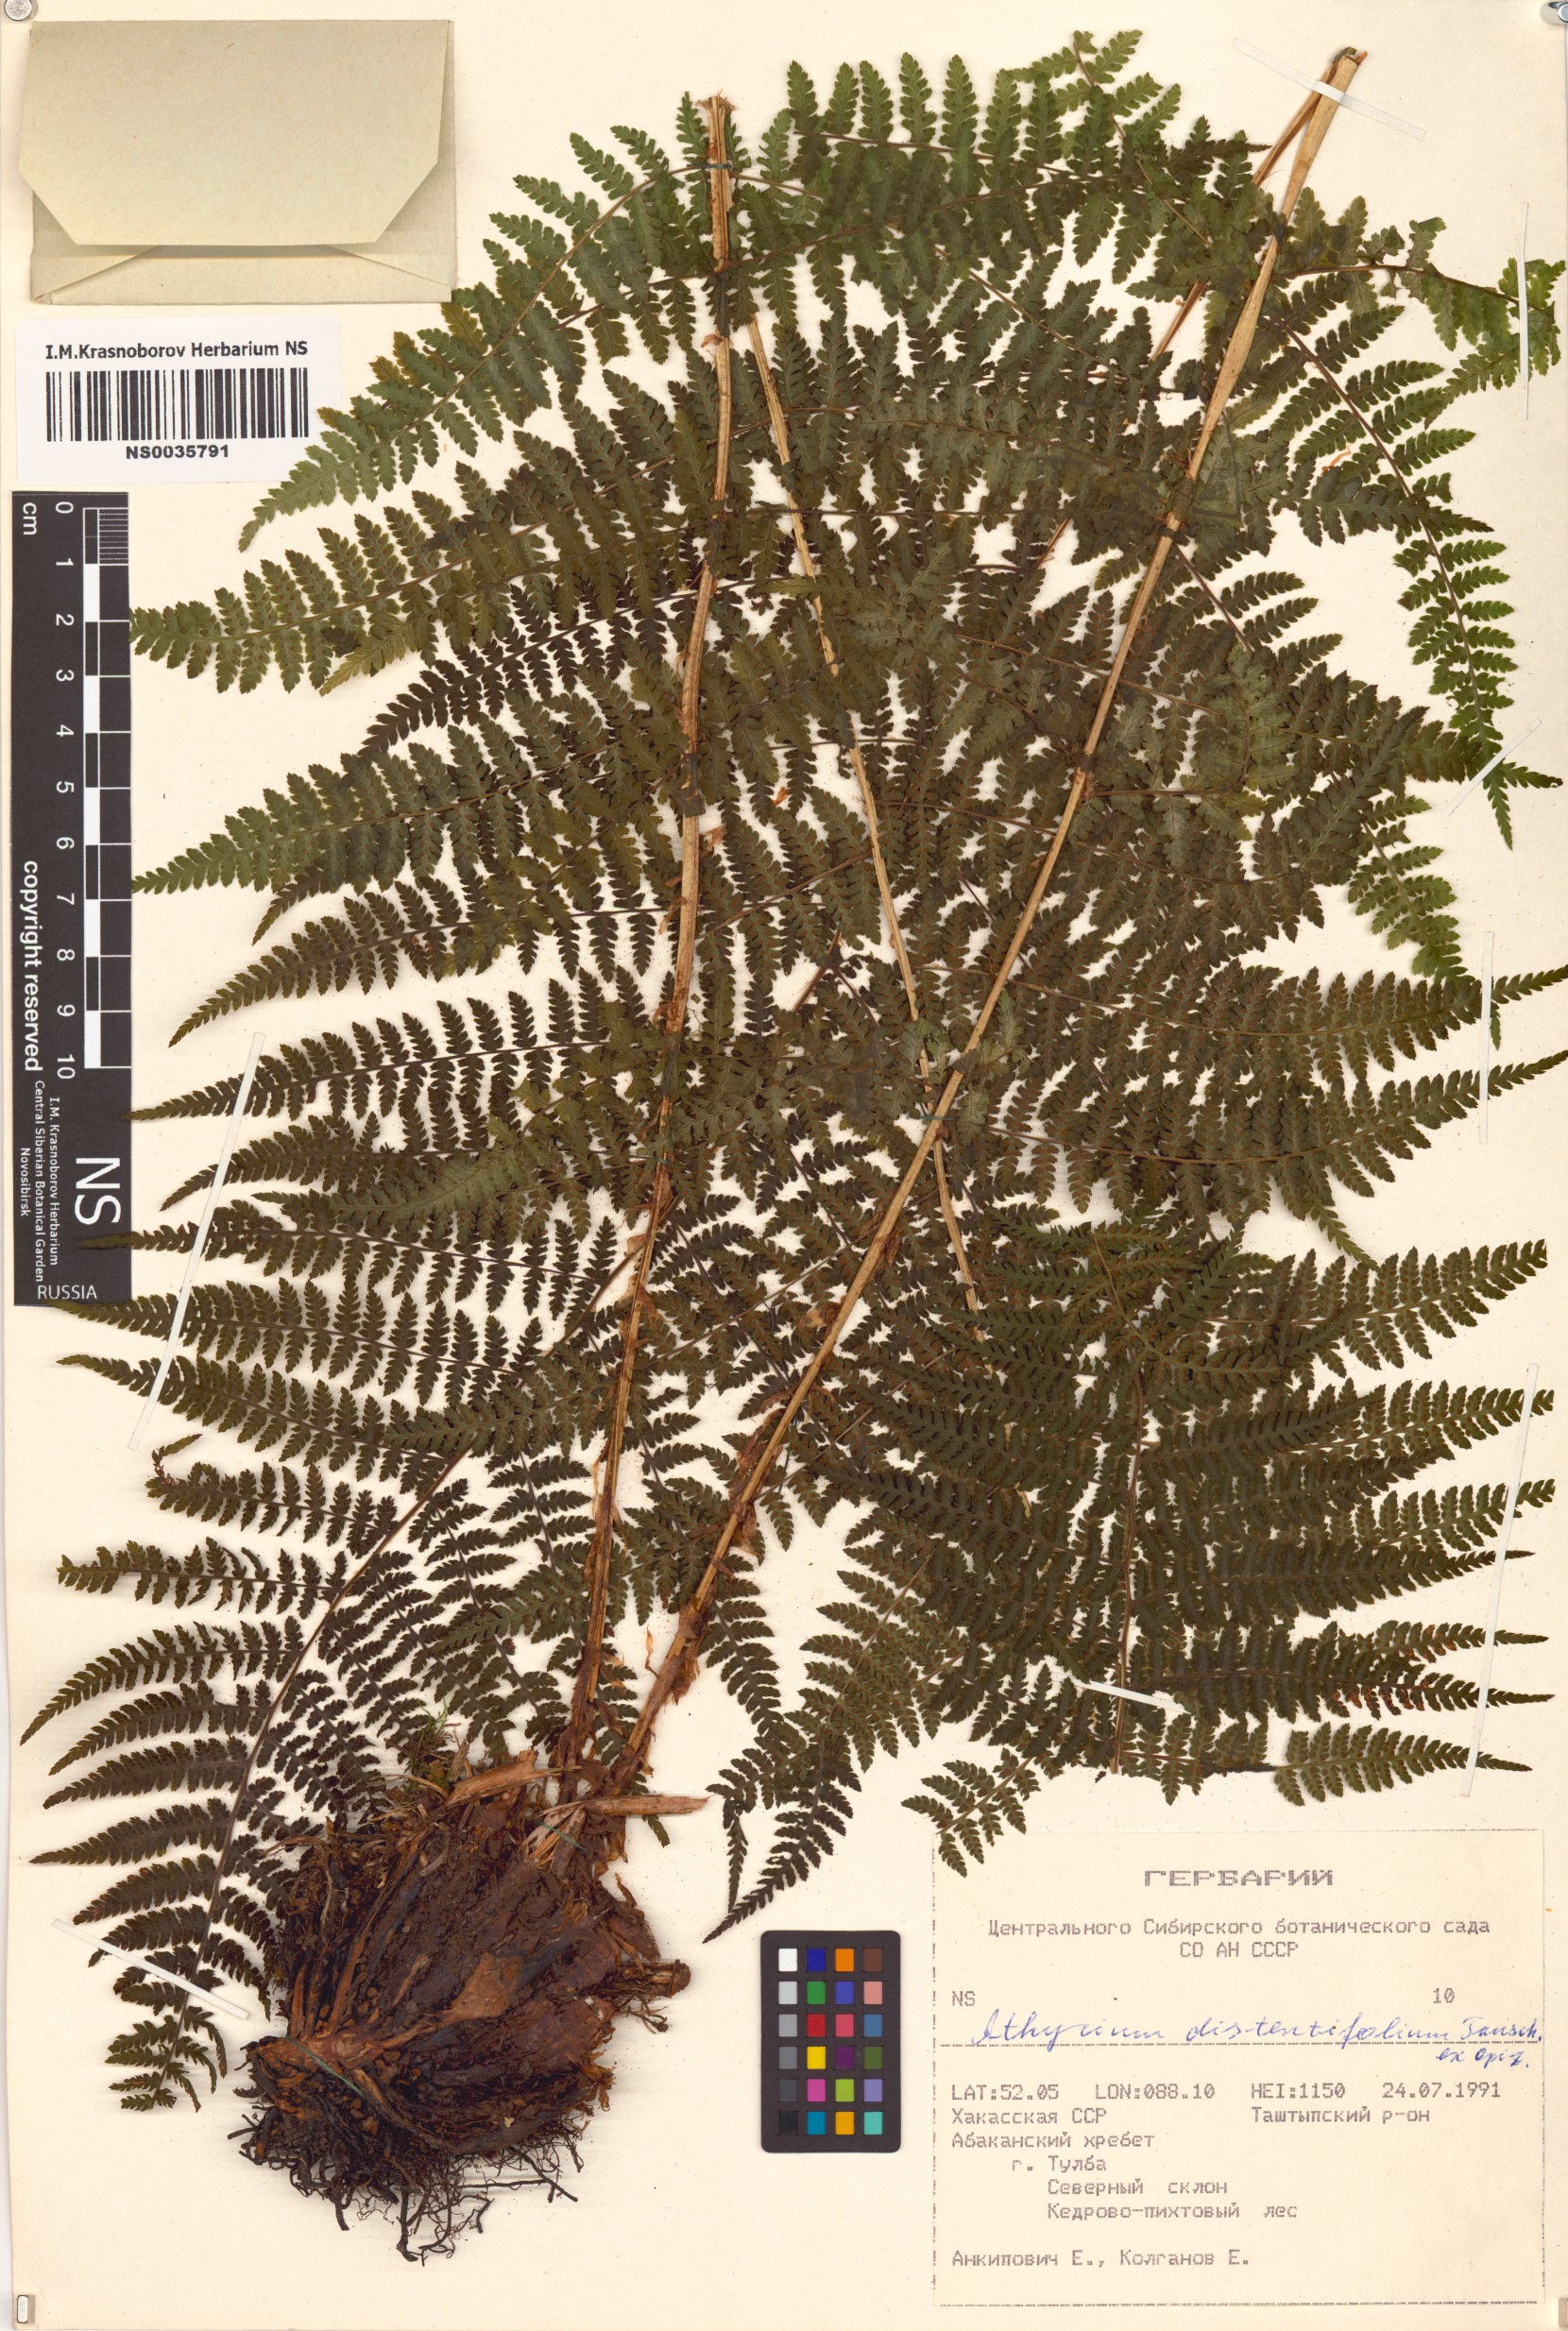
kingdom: Plantae
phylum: Tracheophyta
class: Polypodiopsida
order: Polypodiales
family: Athyriaceae
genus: Pseudathyrium
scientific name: Pseudathyrium alpestre
